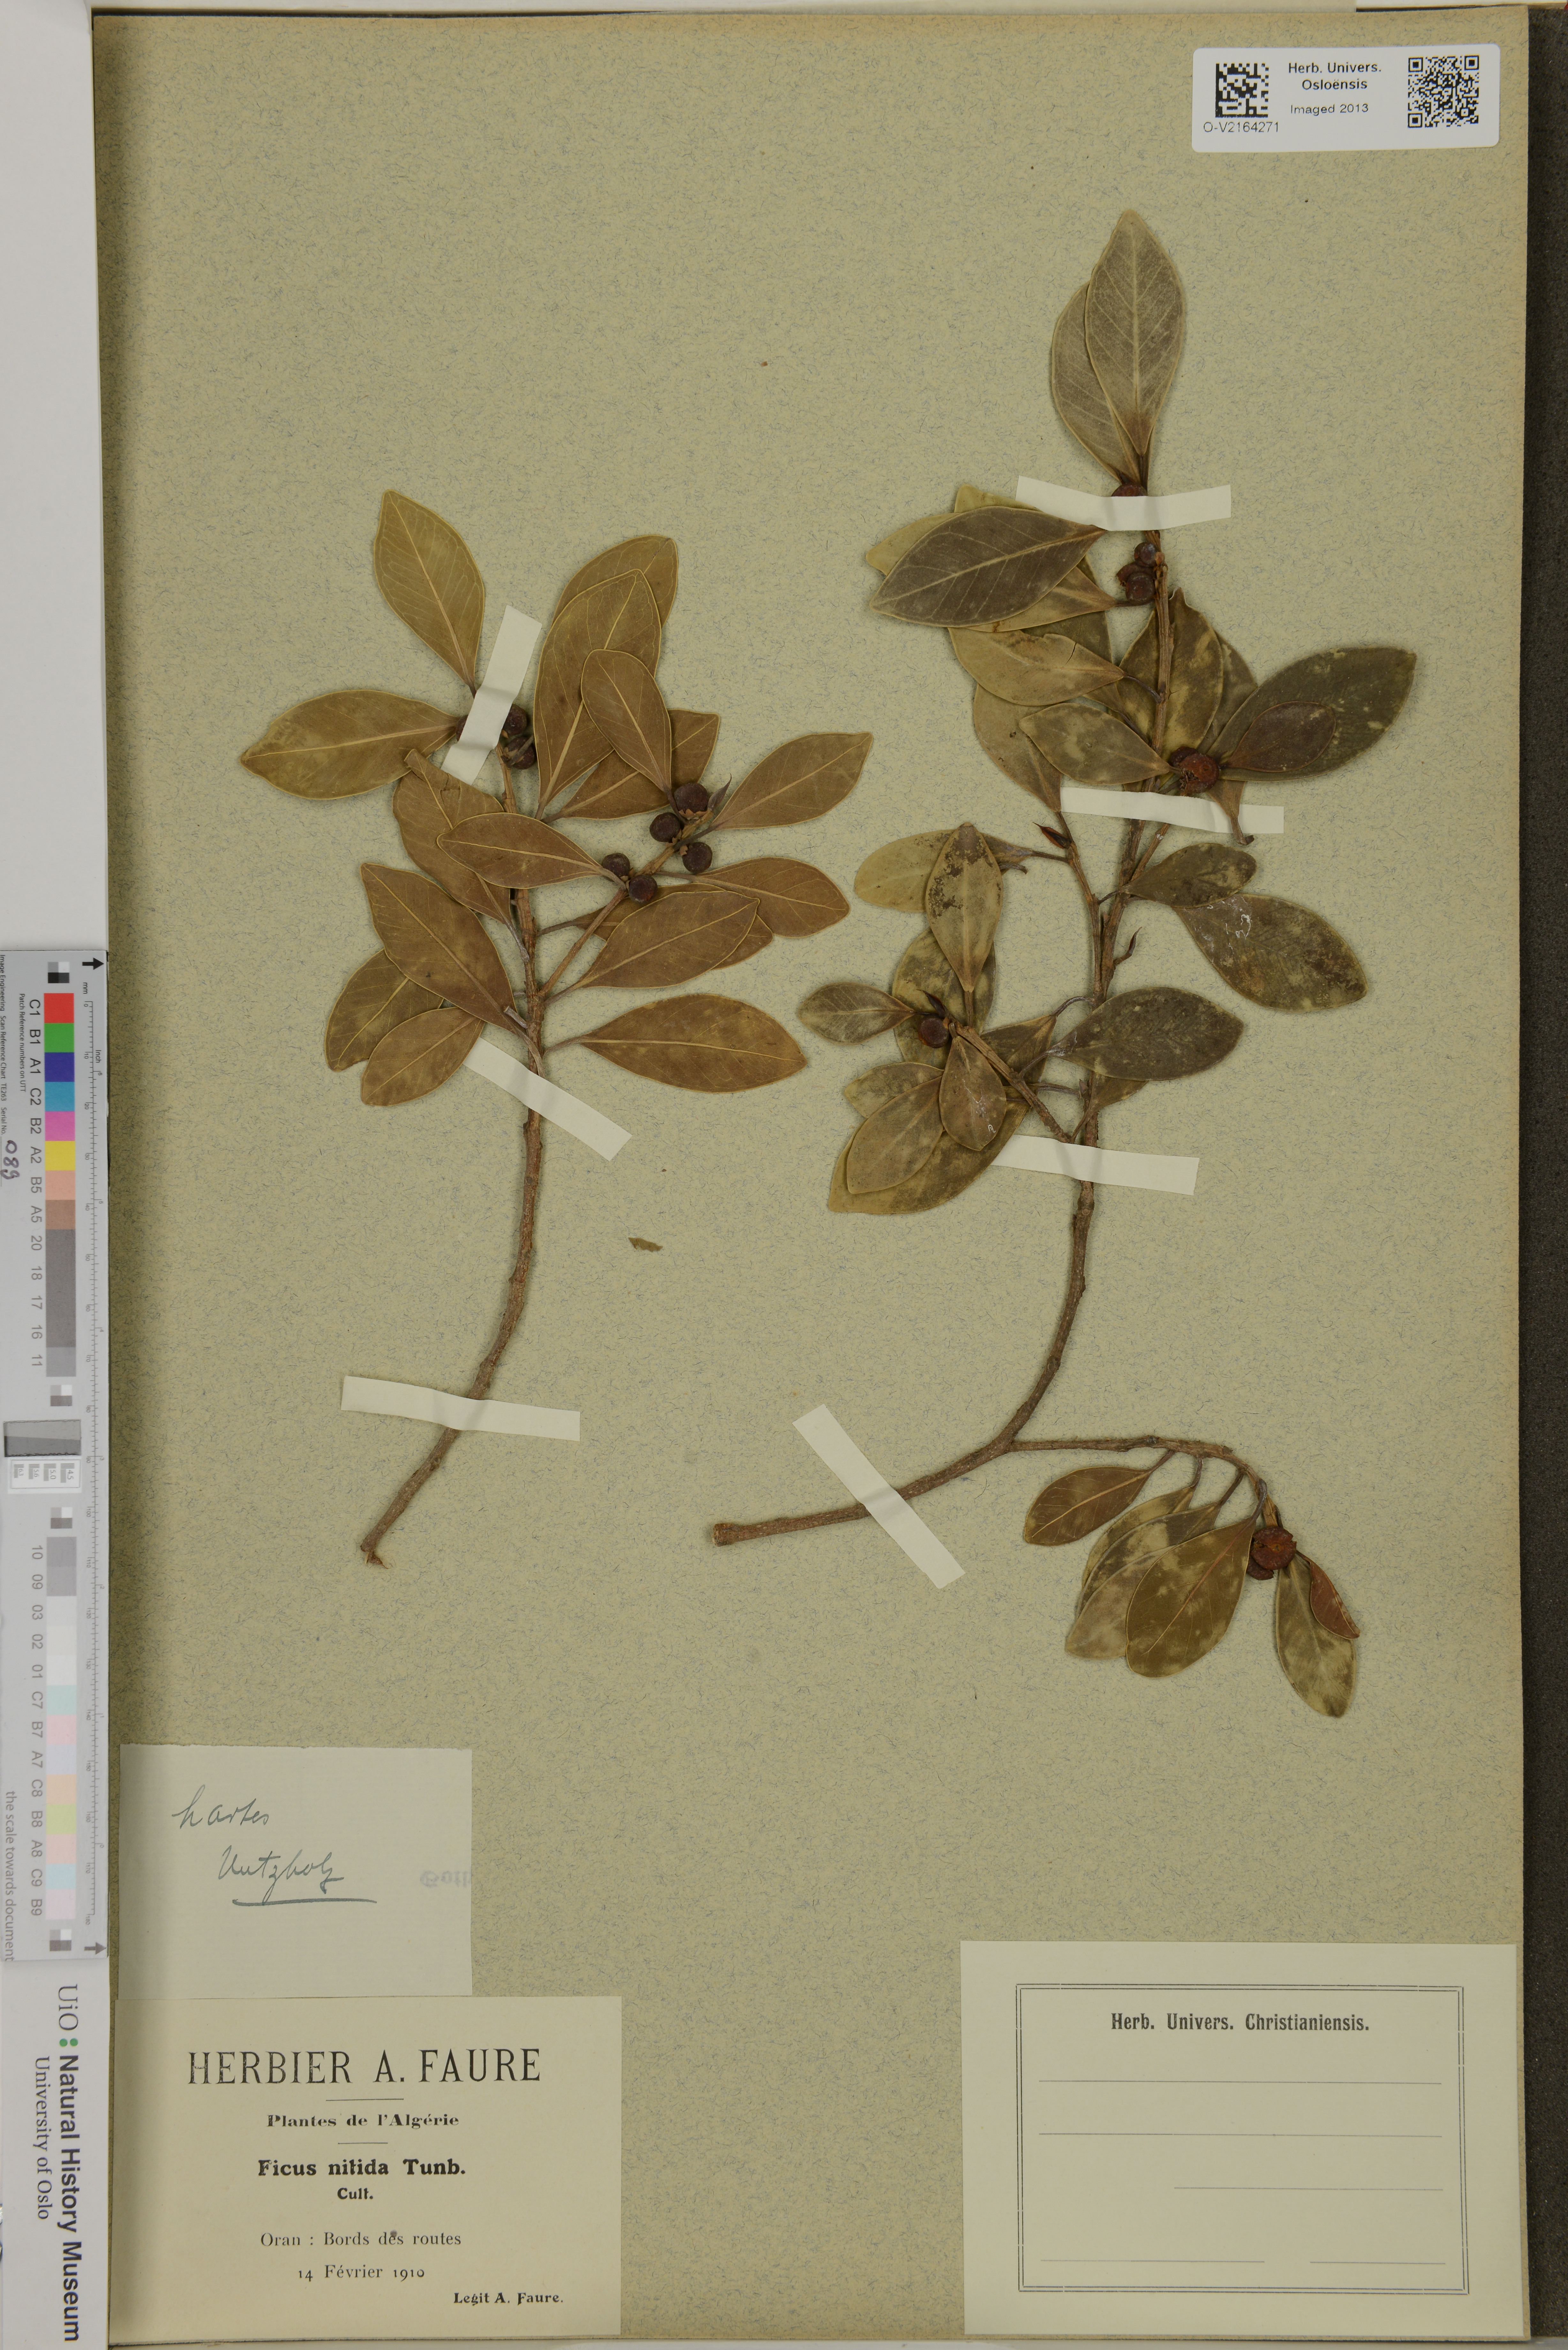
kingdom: Plantae
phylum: Tracheophyta
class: Magnoliopsida
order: Rosales
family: Moraceae
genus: Ficus
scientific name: Ficus nitida
